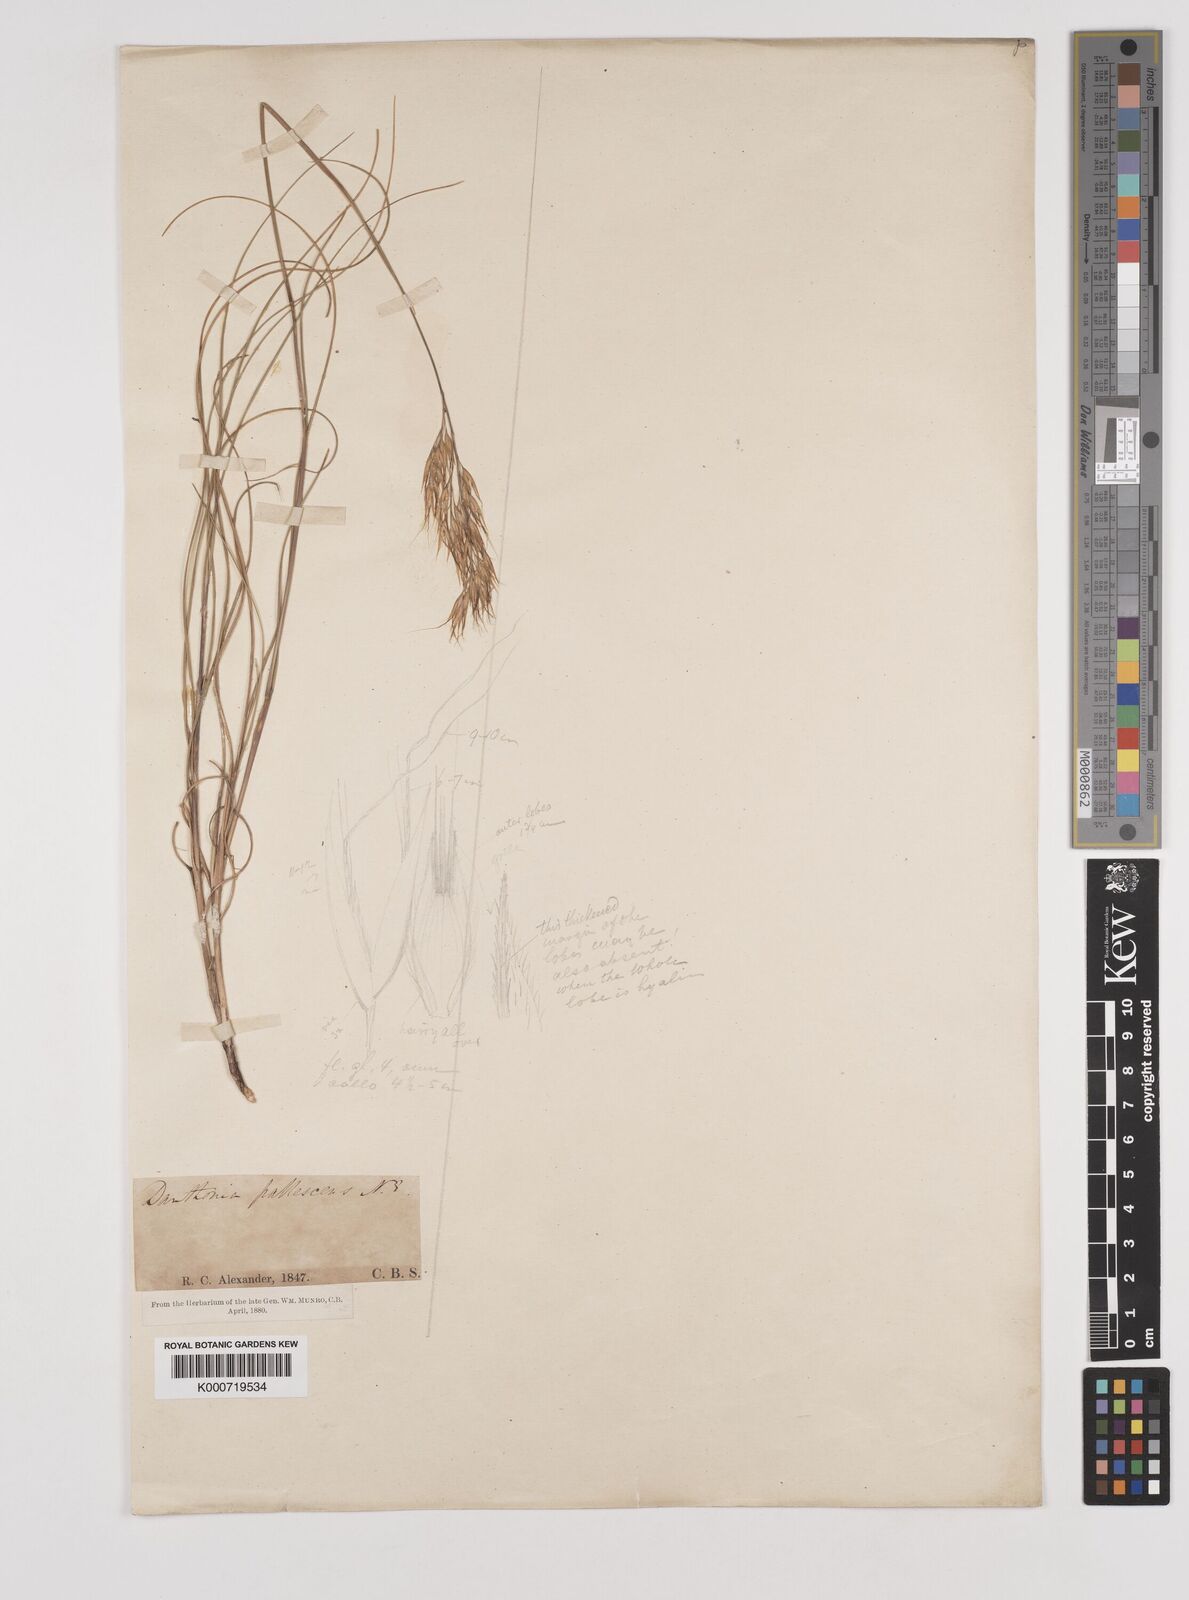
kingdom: Plantae
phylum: Tracheophyta
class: Liliopsida
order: Poales
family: Poaceae
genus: Pentameris
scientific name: Pentameris colorata
